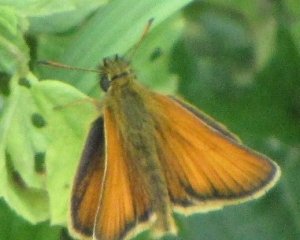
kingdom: Animalia
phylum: Arthropoda
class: Insecta
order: Lepidoptera
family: Hesperiidae
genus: Thymelicus
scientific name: Thymelicus lineola
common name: European Skipper
